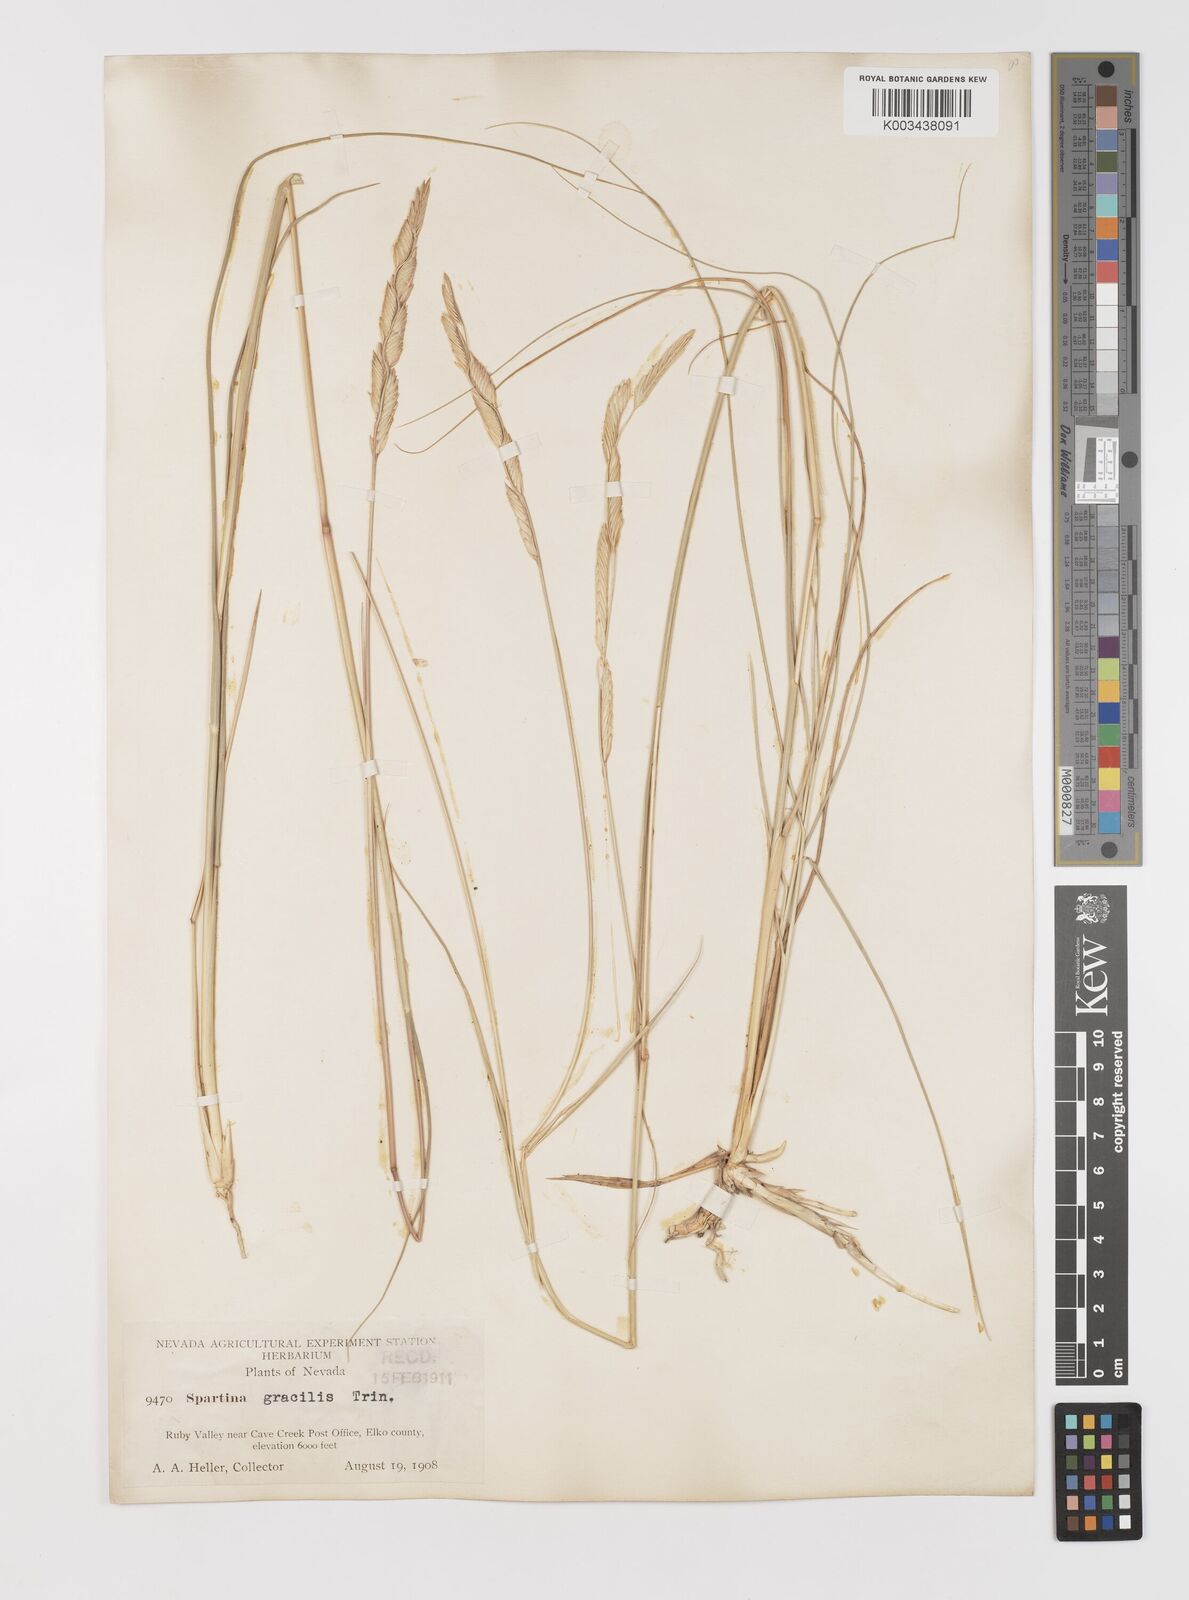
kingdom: Plantae
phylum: Tracheophyta
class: Liliopsida
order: Poales
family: Poaceae
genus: Sporobolus
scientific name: Sporobolus hookerianus
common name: Alkali cordgrass
